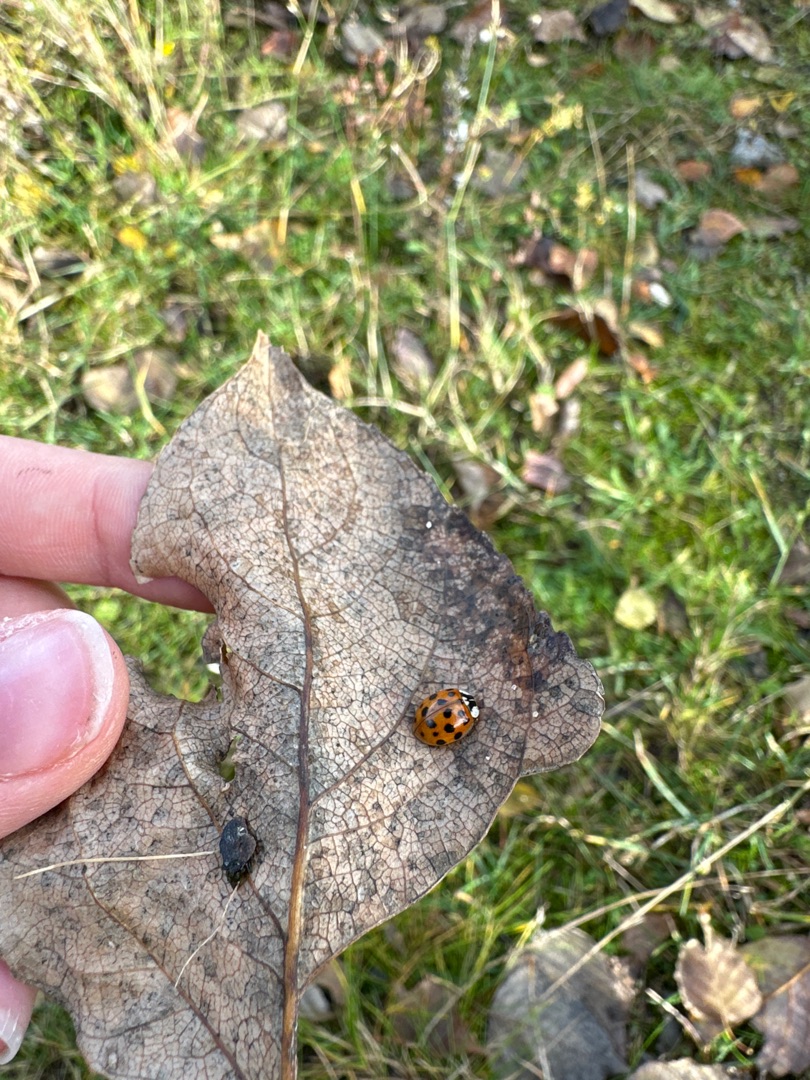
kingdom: Animalia
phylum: Arthropoda
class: Insecta
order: Coleoptera
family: Coccinellidae
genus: Harmonia
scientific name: Harmonia axyridis
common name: Harlekinmariehøne
